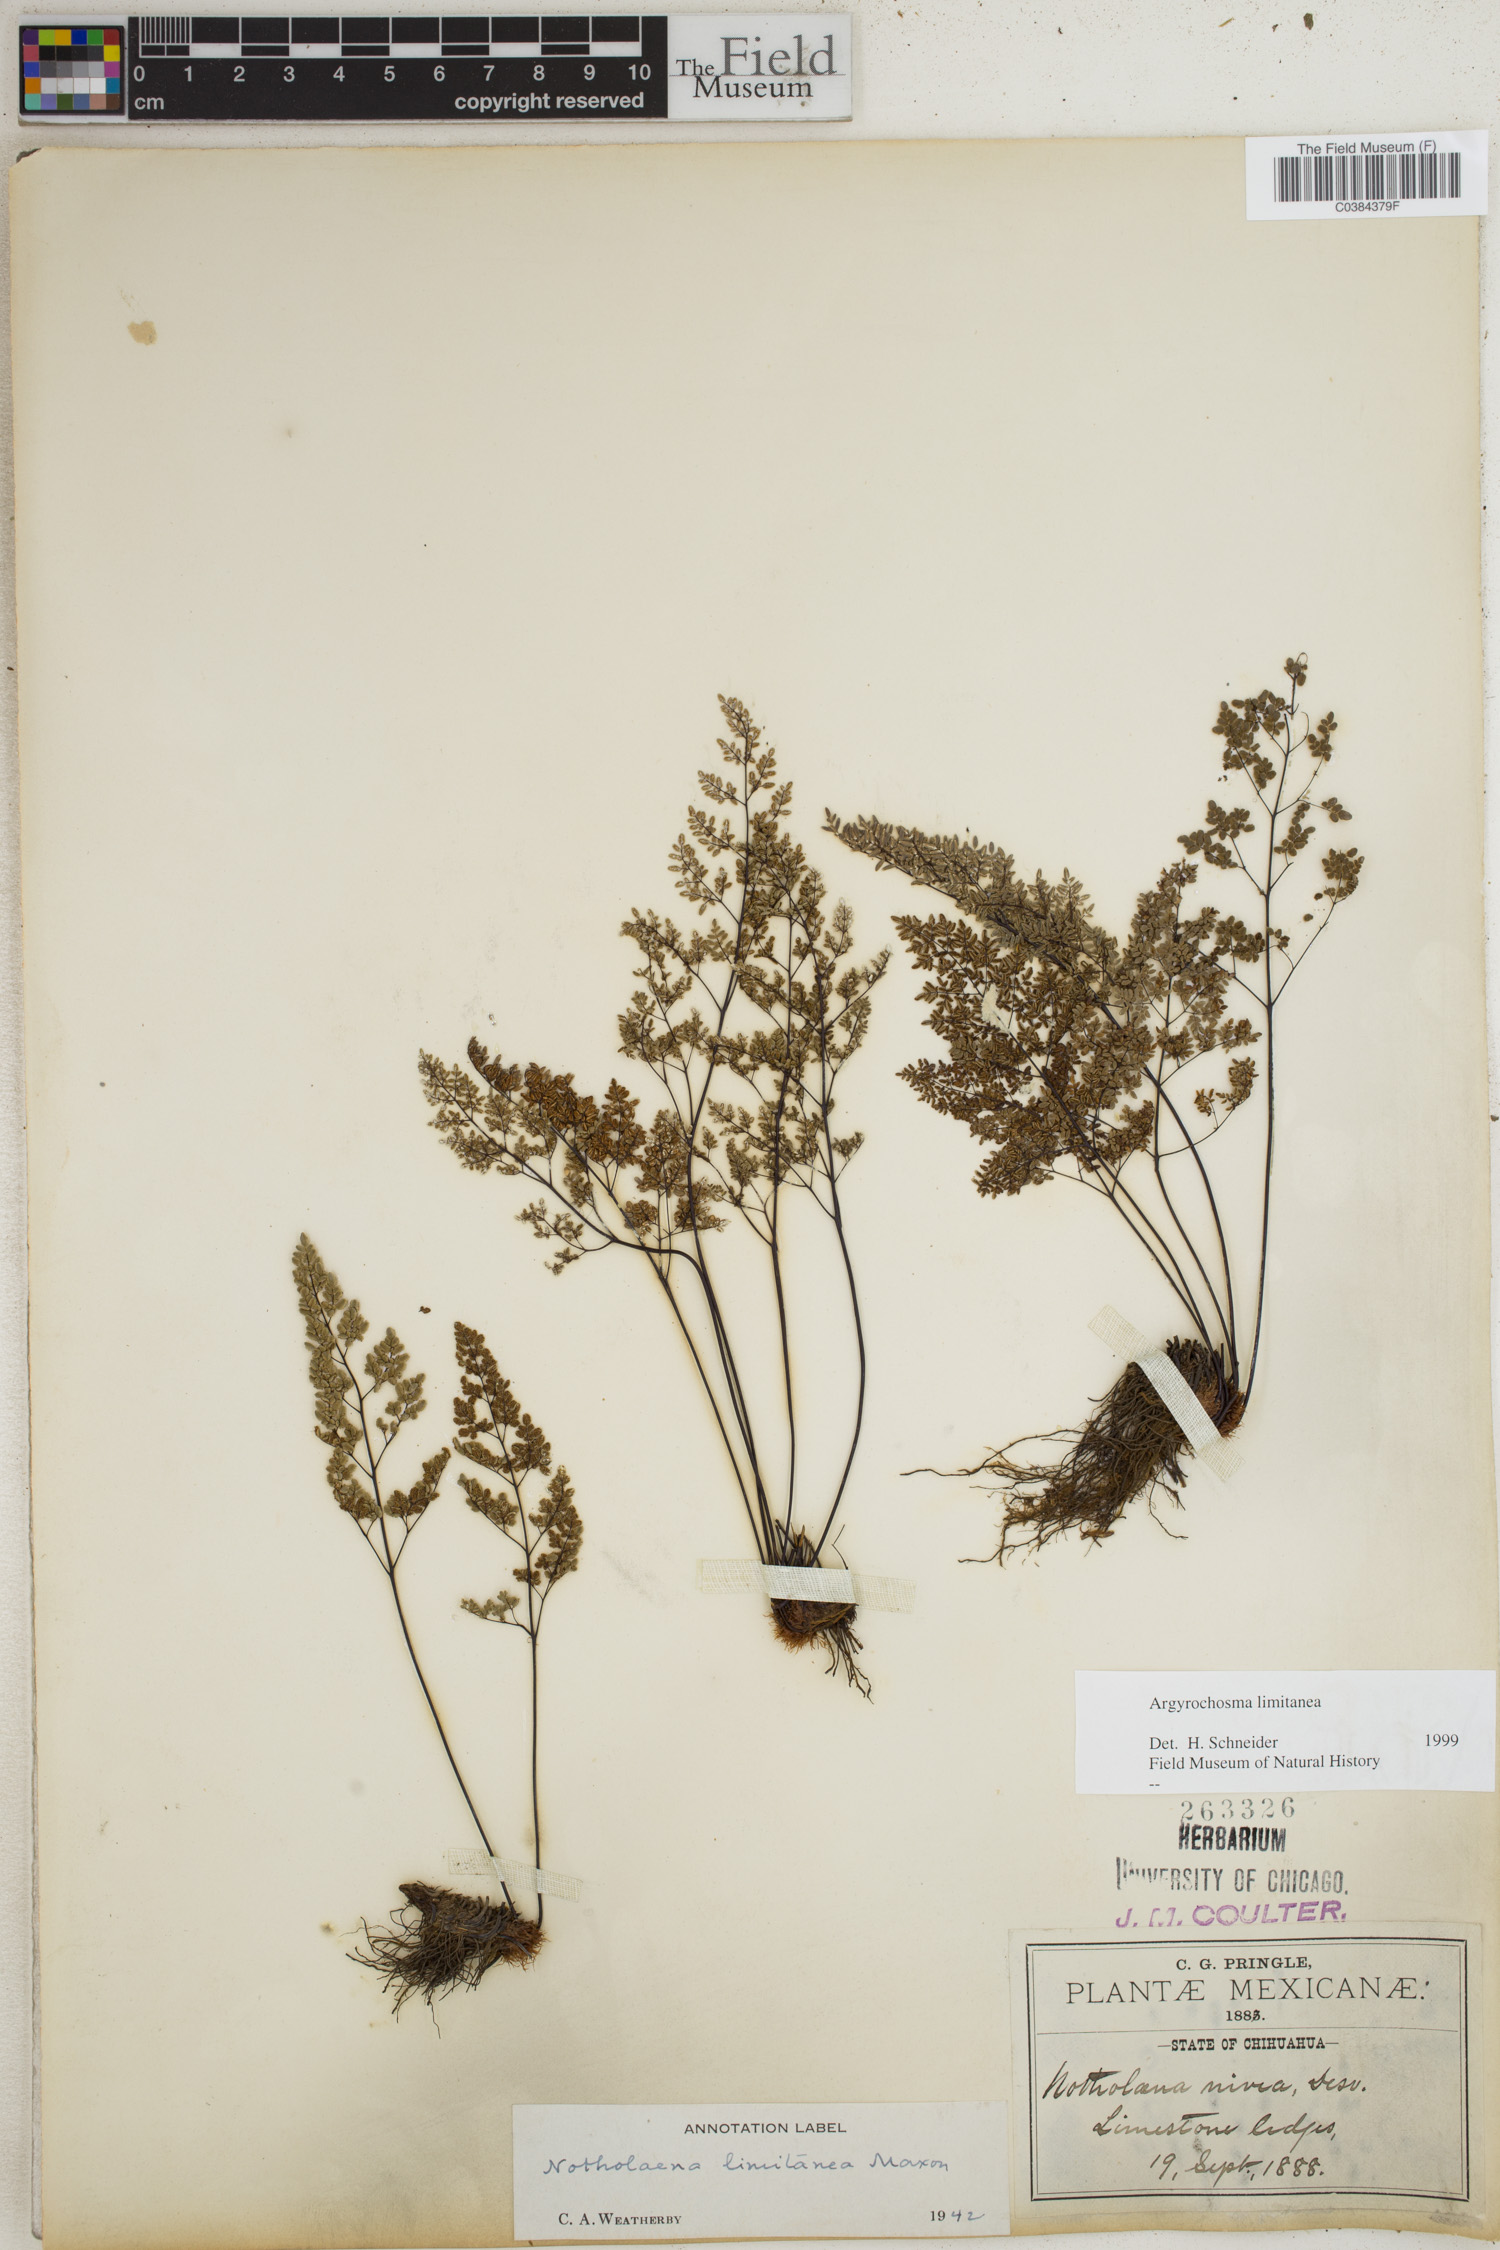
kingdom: Plantae
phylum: Tracheophyta
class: Polypodiopsida
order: Polypodiales
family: Pteridaceae
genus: Argyrochosma
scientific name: Argyrochosma limitanea
